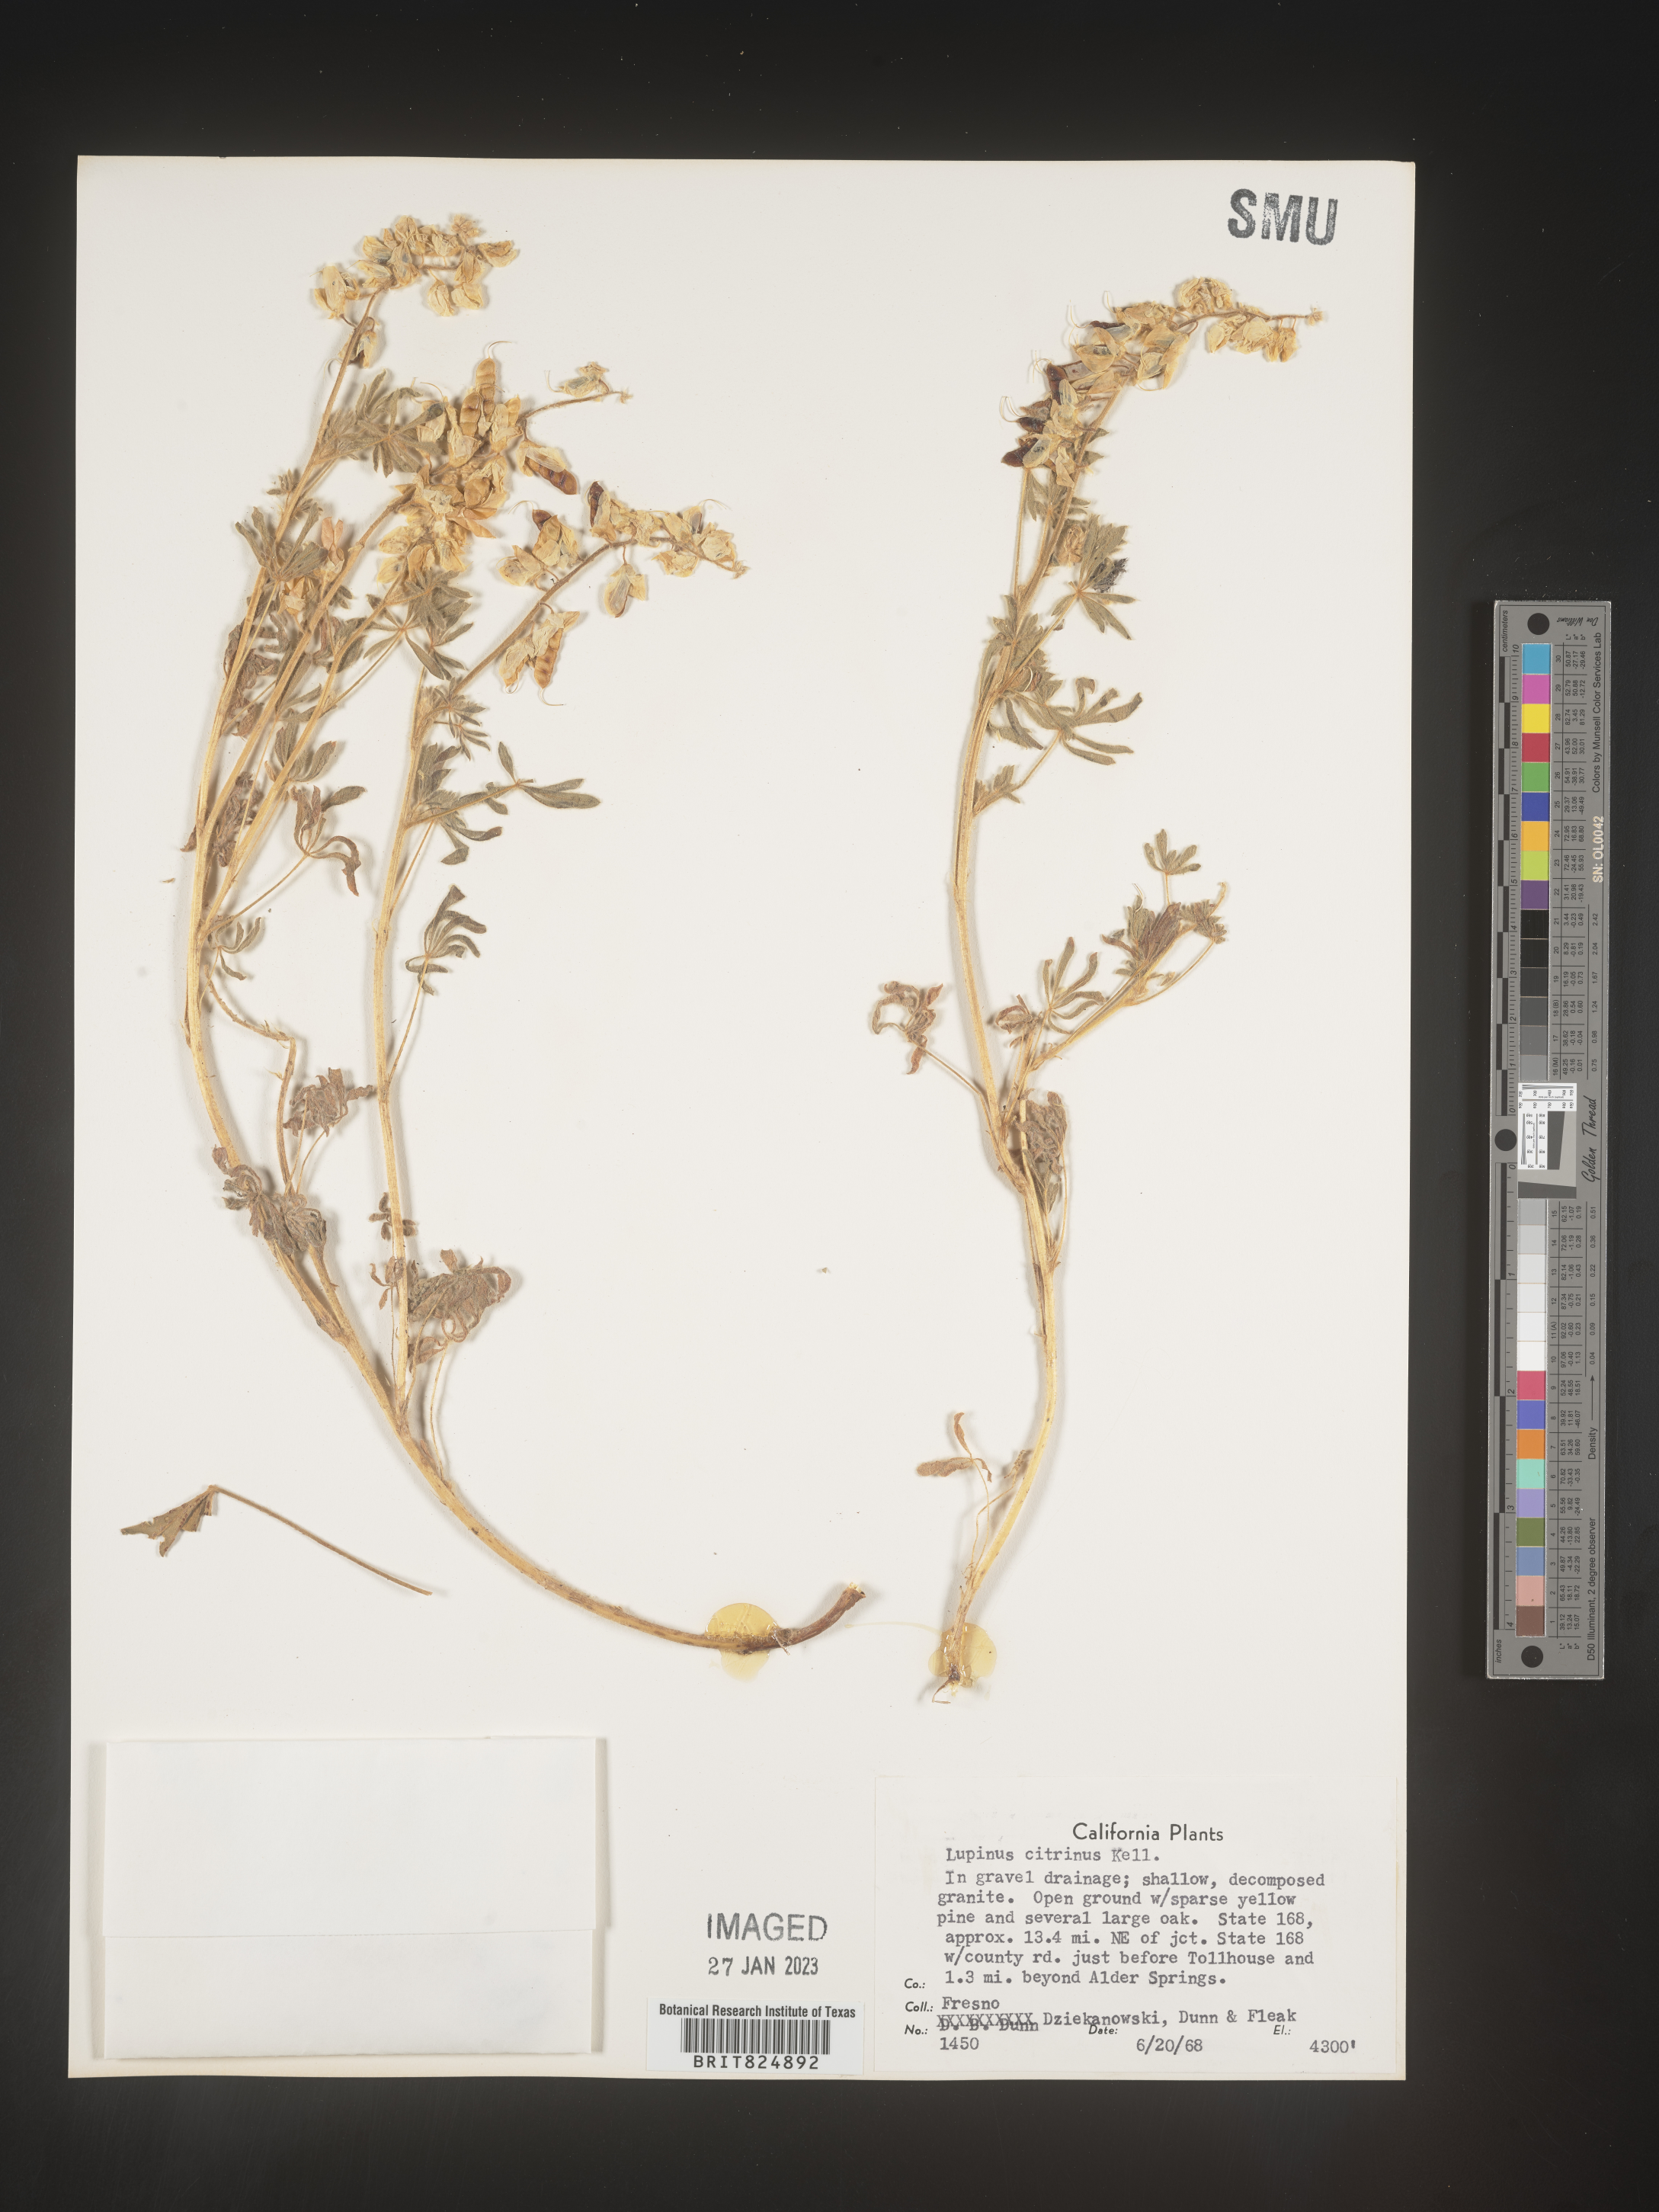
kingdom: Plantae
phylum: Tracheophyta
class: Magnoliopsida
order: Fabales
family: Fabaceae
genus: Lupinus
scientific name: Lupinus
